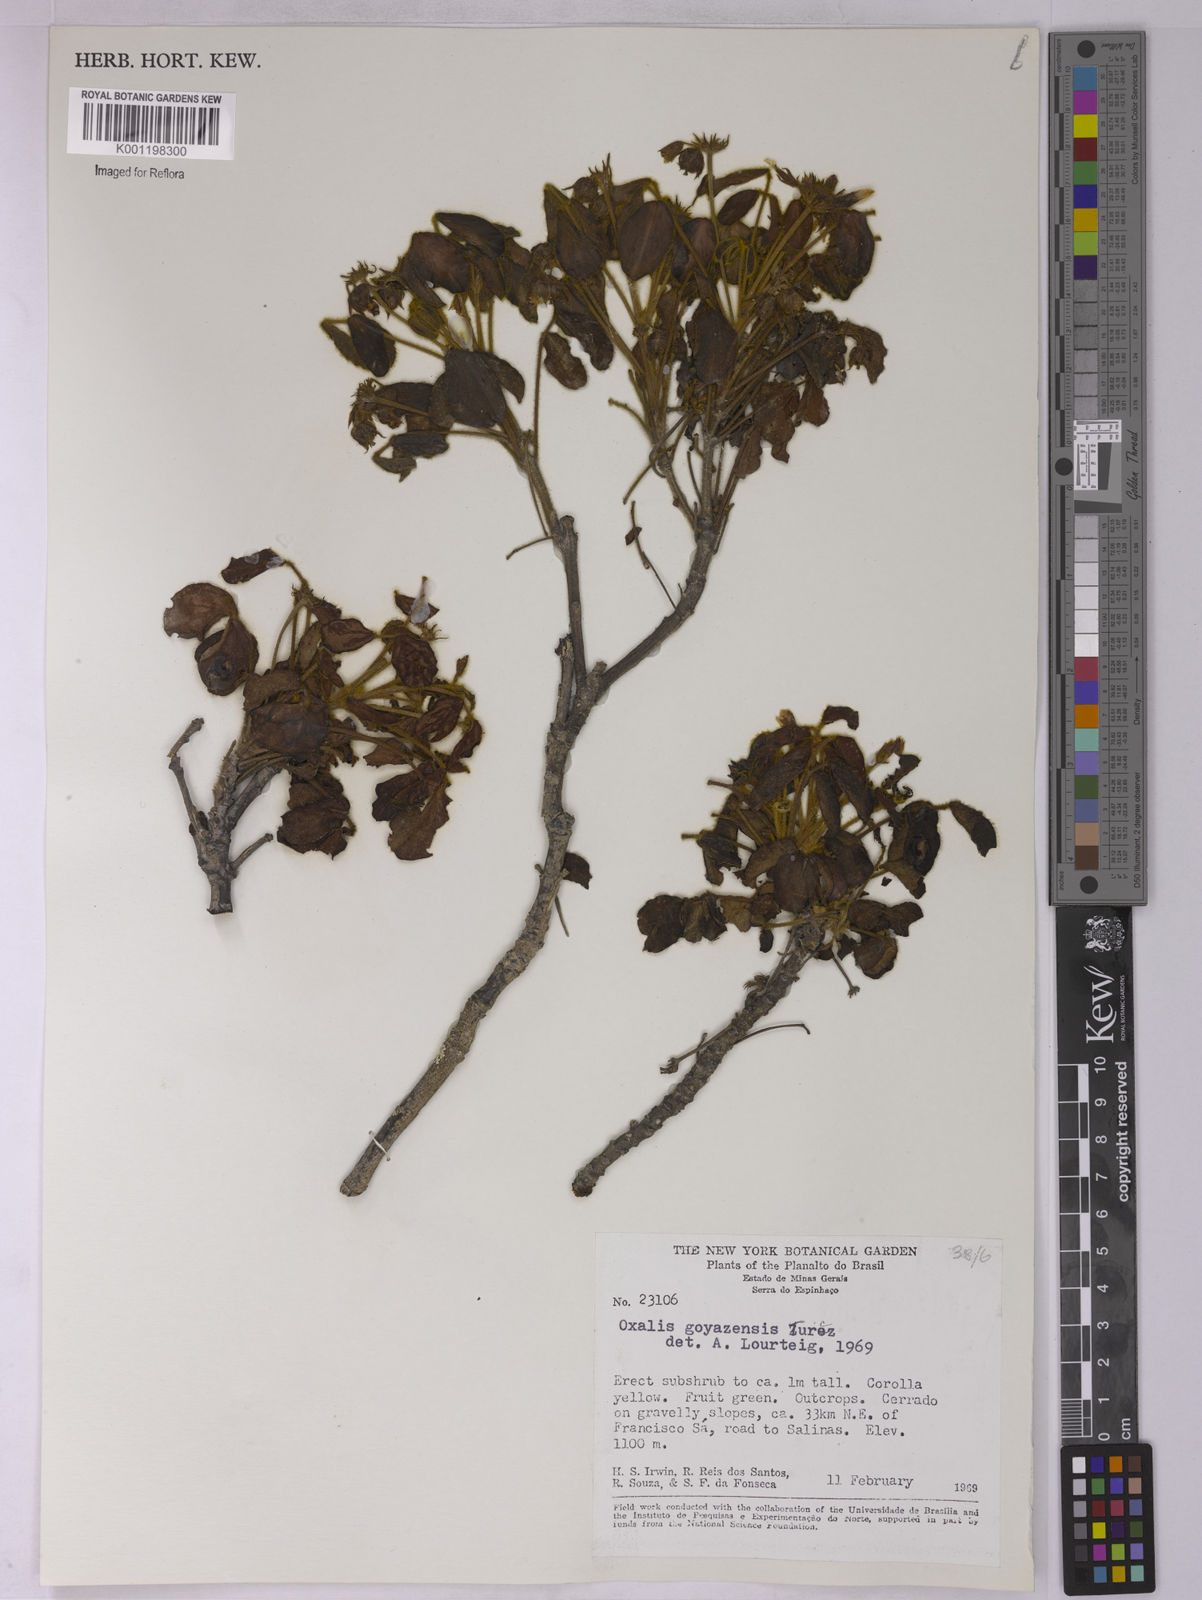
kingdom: Plantae
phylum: Tracheophyta
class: Magnoliopsida
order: Oxalidales
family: Oxalidaceae
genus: Oxalis
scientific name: Oxalis goyazensis
